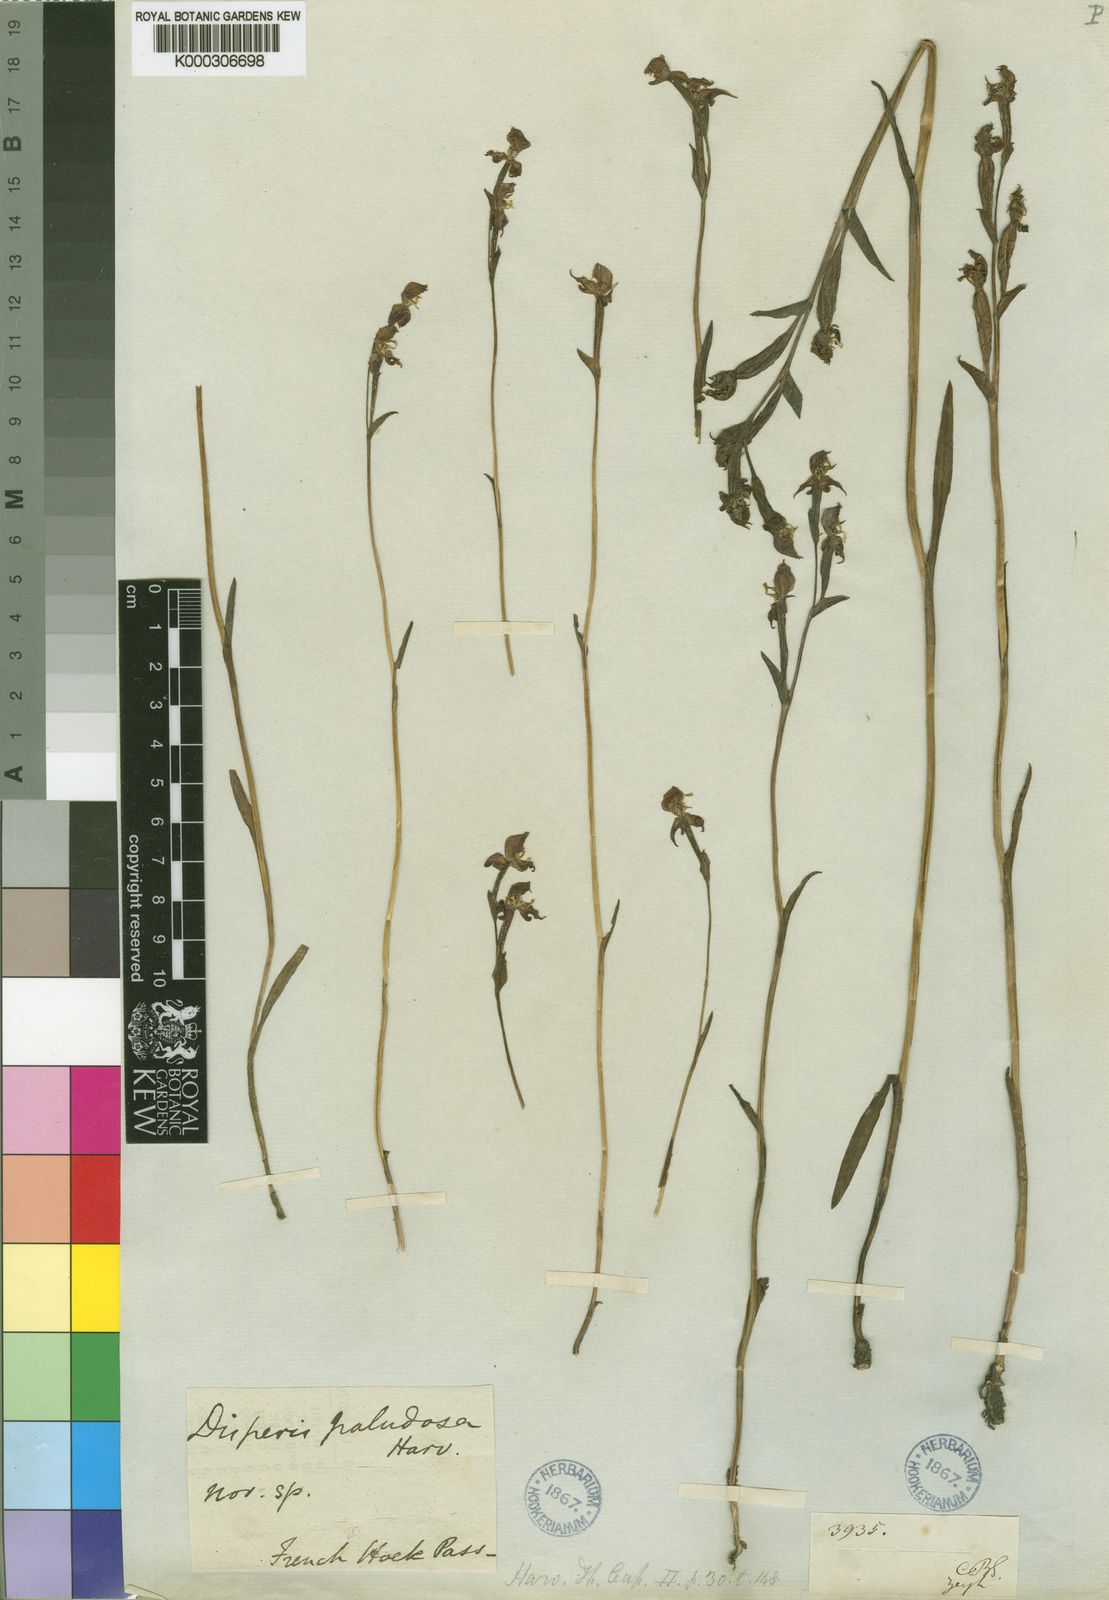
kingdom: Plantae
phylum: Tracheophyta
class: Liliopsida
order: Asparagales
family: Orchidaceae
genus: Disperis
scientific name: Disperis paludosa
